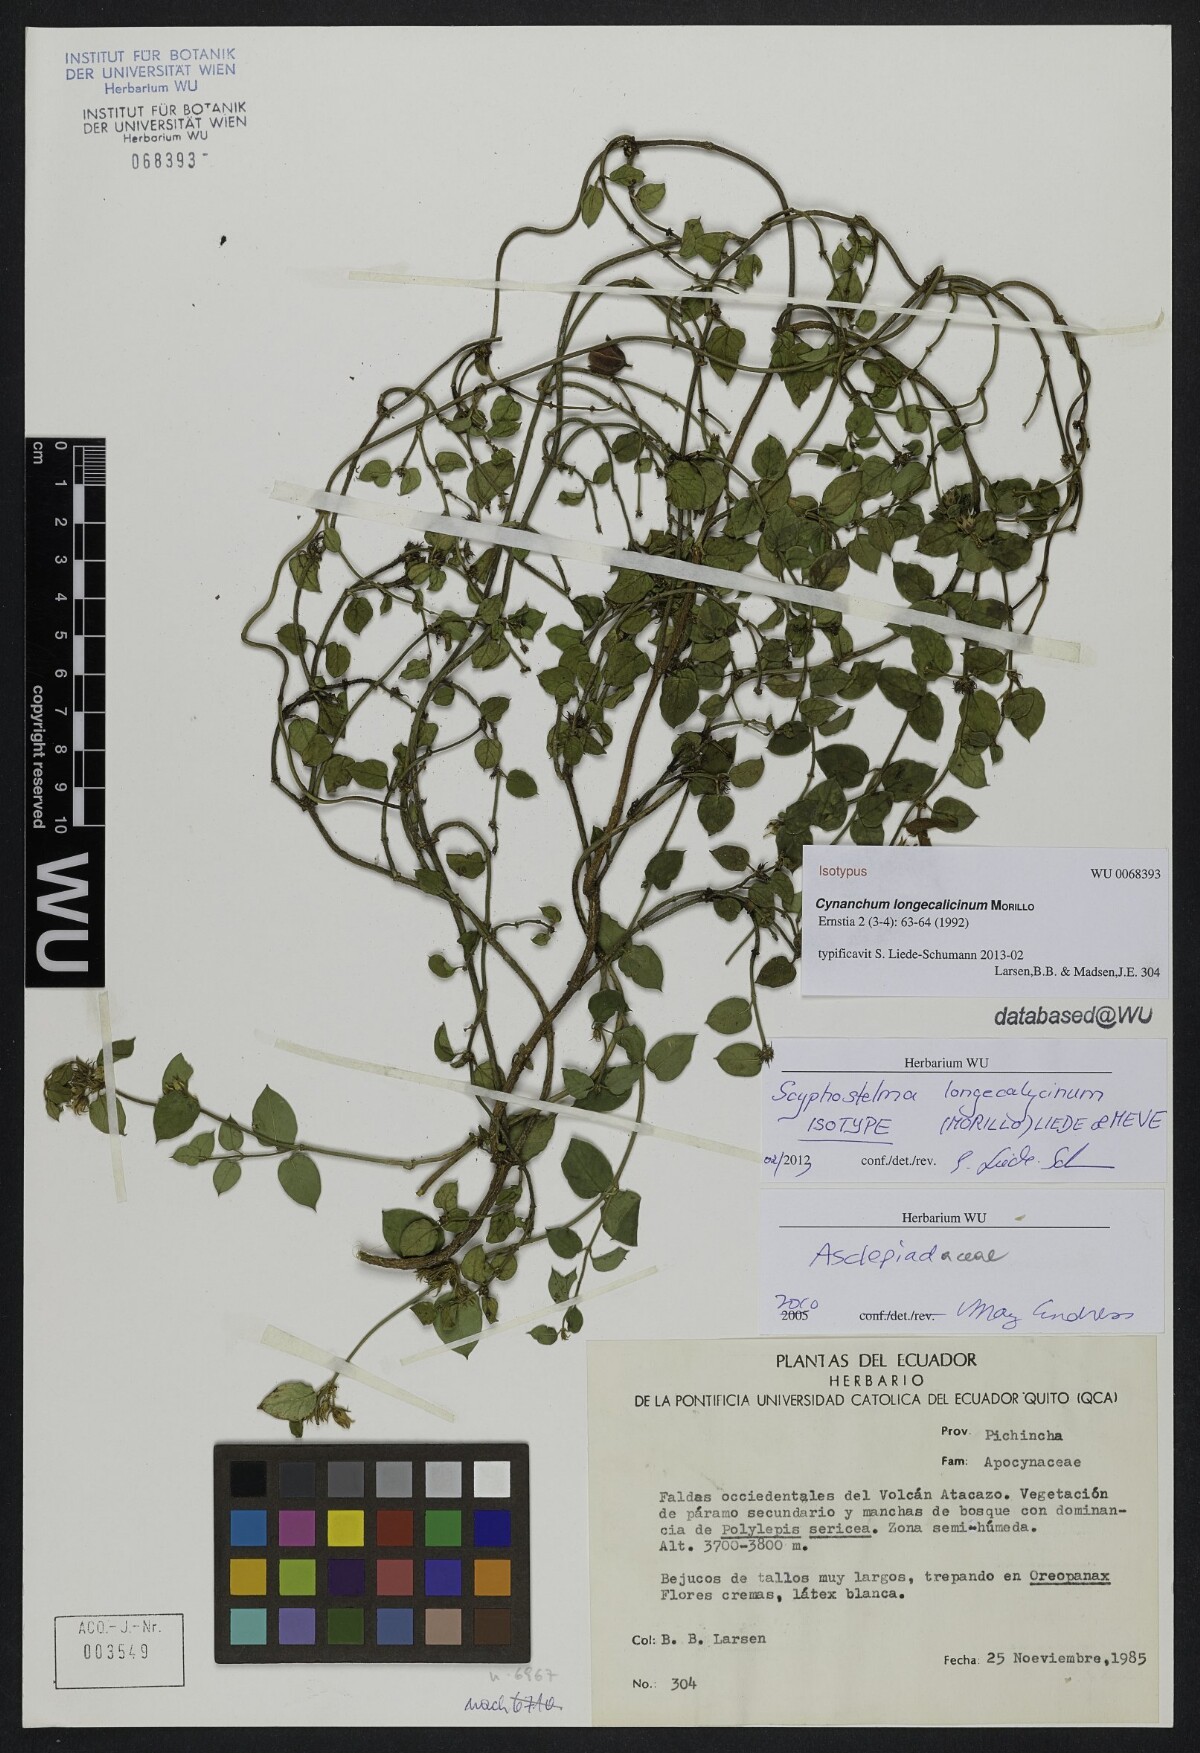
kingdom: Plantae
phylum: Tracheophyta
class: Magnoliopsida
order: Gentianales
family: Apocynaceae
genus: Scyphostelma
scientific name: Scyphostelma longecalicinum
